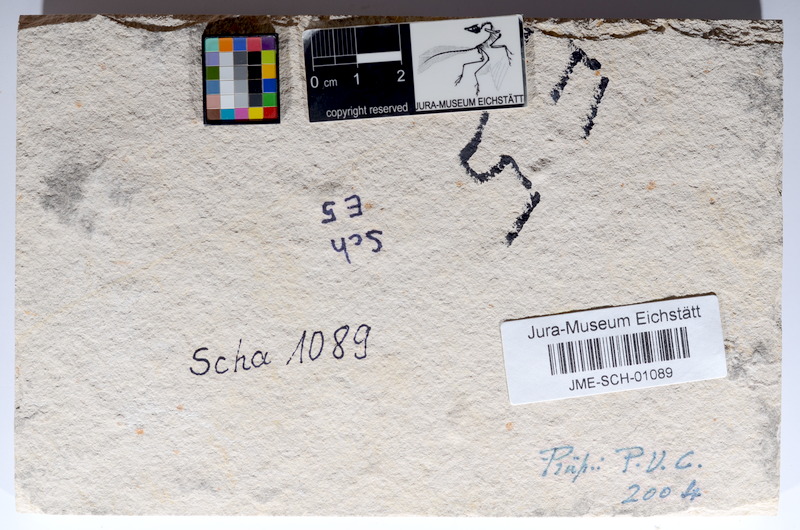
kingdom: Animalia
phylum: Chordata
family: Ascalaboidae
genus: Tharsis
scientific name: Tharsis dubius
